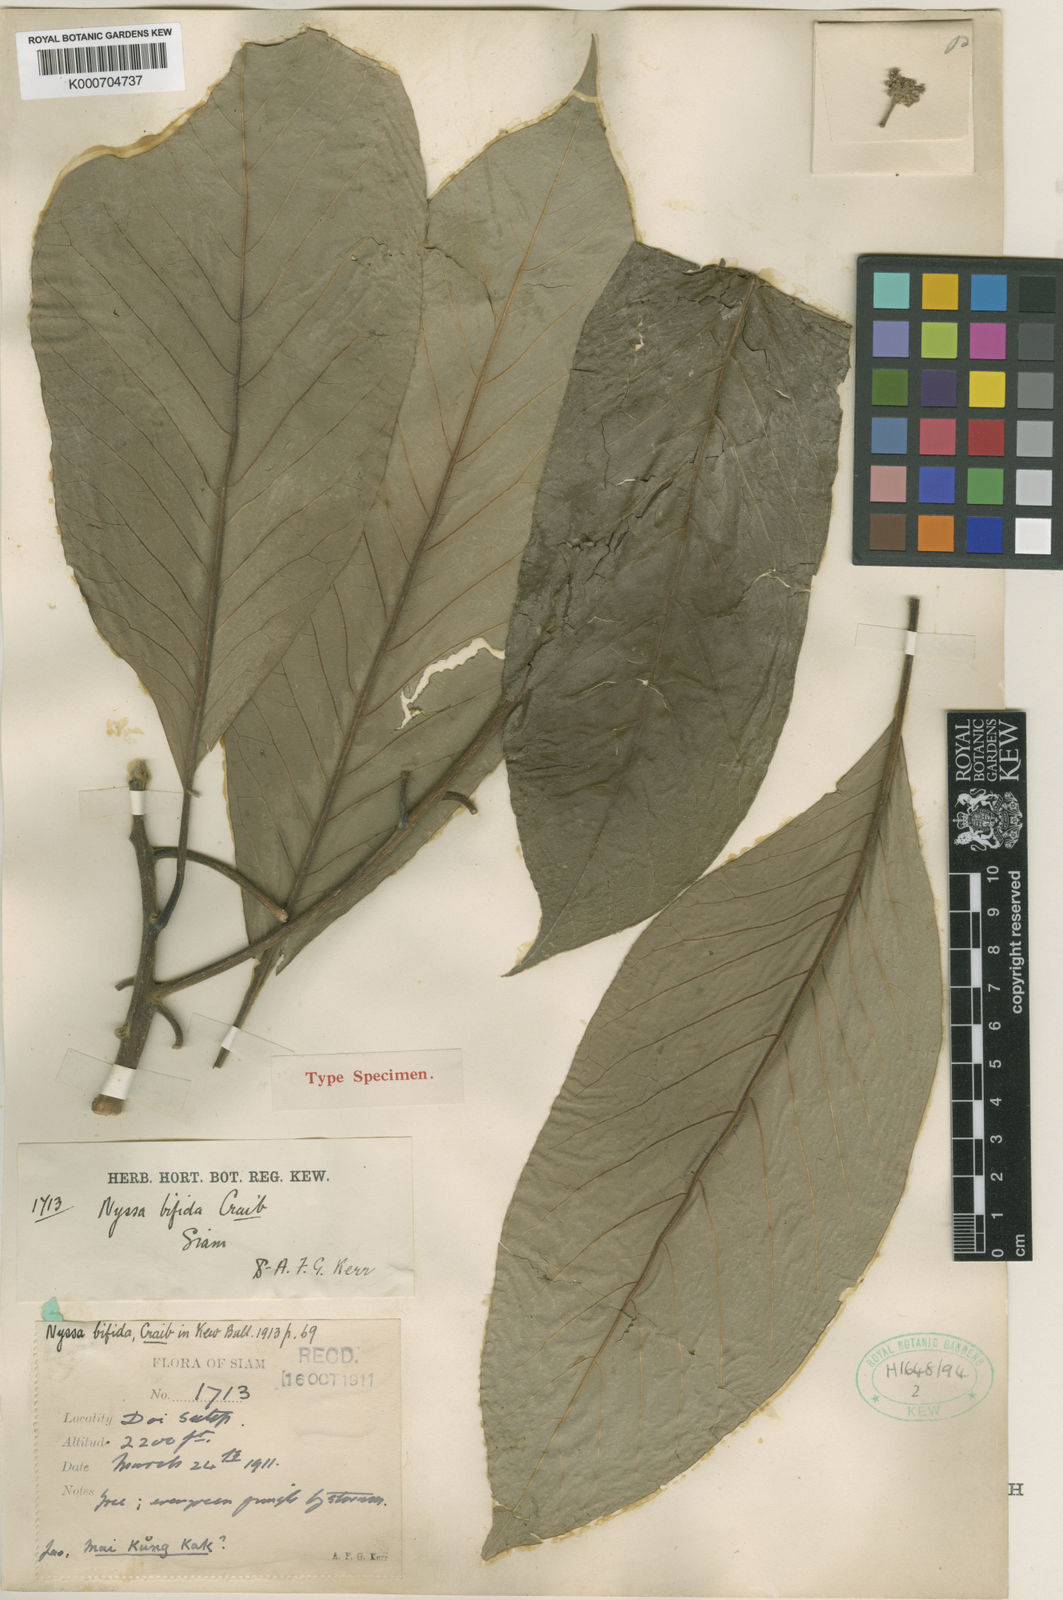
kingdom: Plantae
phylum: Tracheophyta
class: Magnoliopsida
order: Cornales
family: Nyssaceae
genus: Nyssa
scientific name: Nyssa bifida
